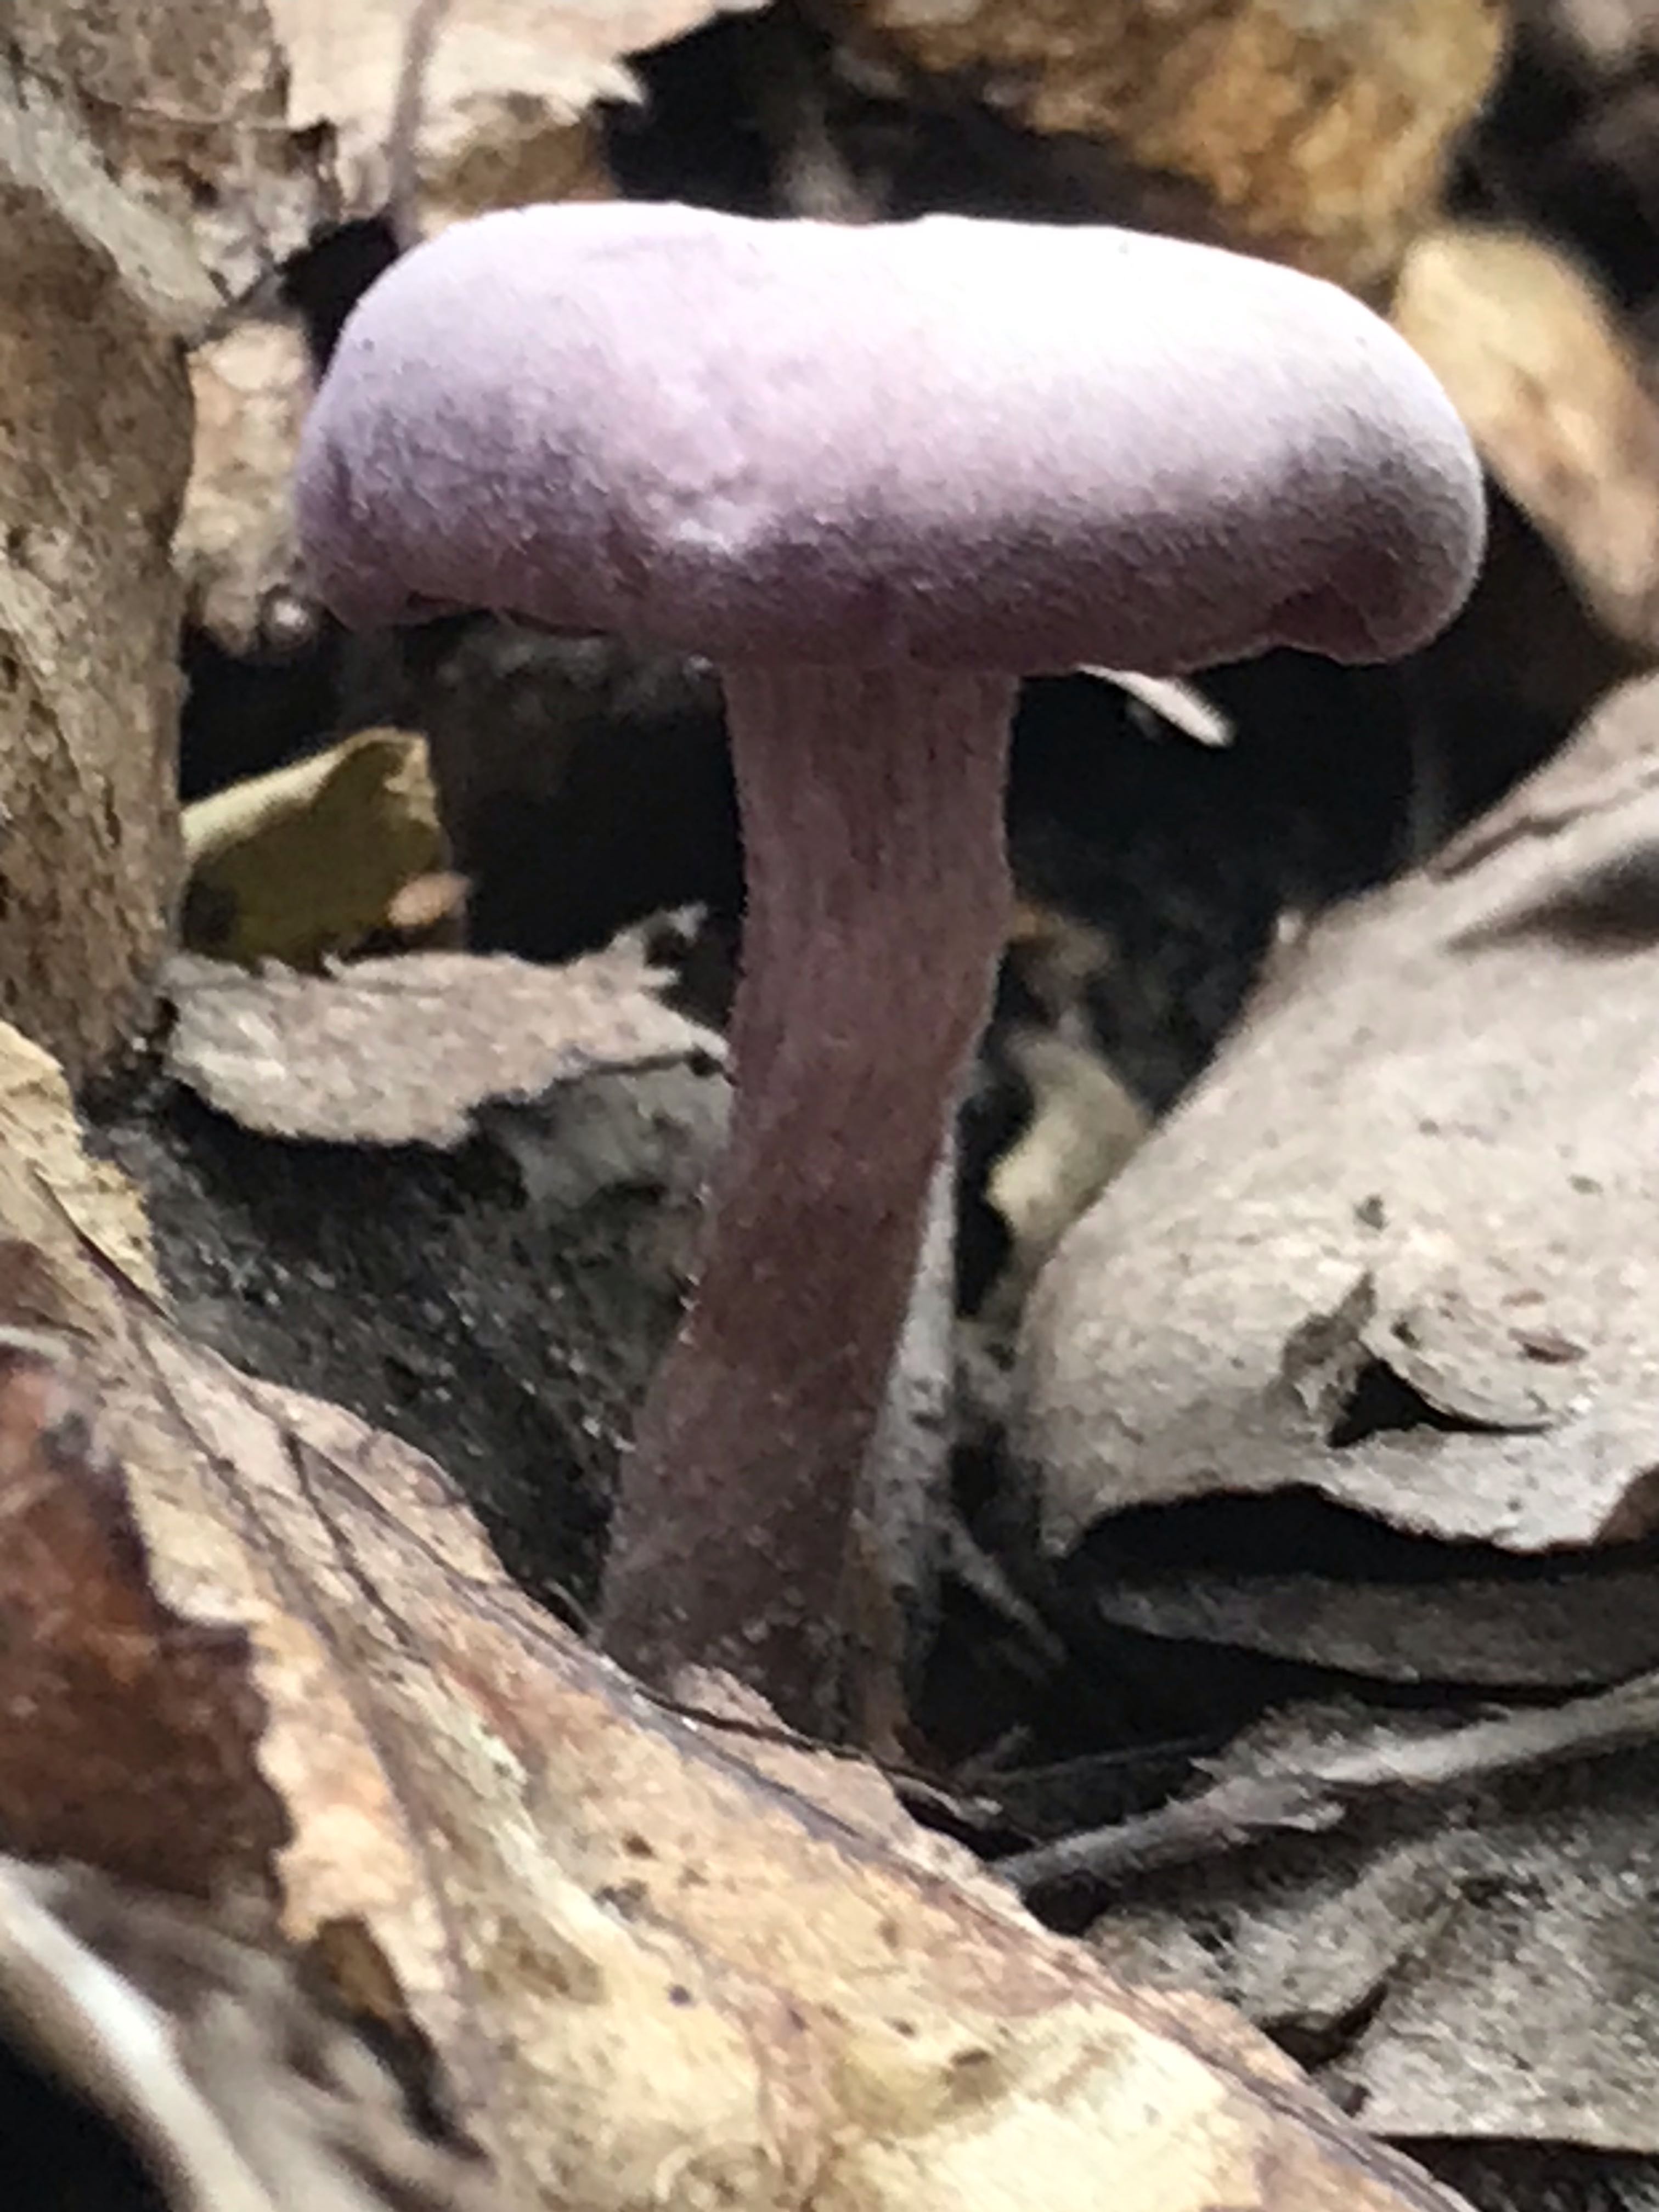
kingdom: Fungi
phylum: Basidiomycota
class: Agaricomycetes
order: Agaricales
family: Hydnangiaceae
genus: Laccaria
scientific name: Laccaria amethystina
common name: violet ametysthat
